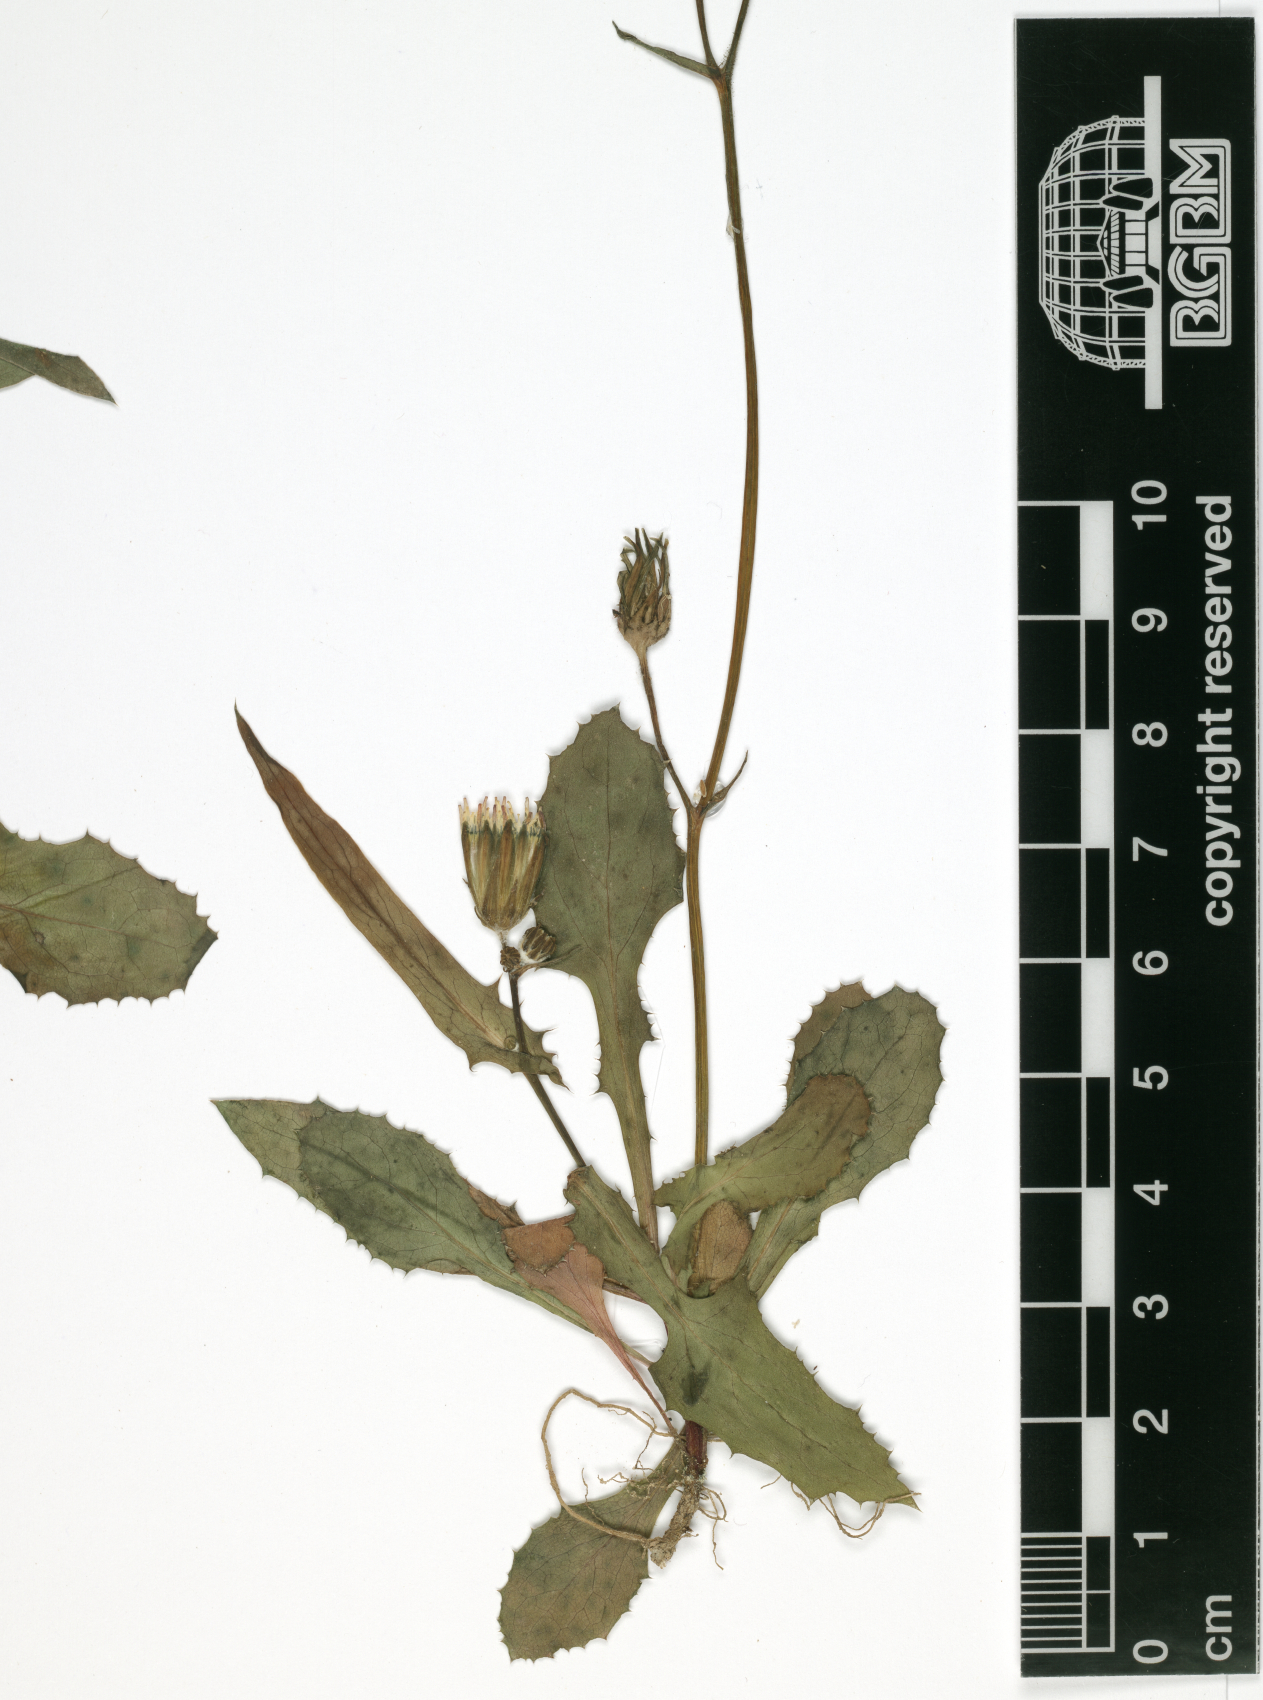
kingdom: Plantae
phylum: Tracheophyta
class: Magnoliopsida
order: Asterales
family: Asteraceae
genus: Sonchus
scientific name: Sonchus oleraceus
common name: Common sowthistle
